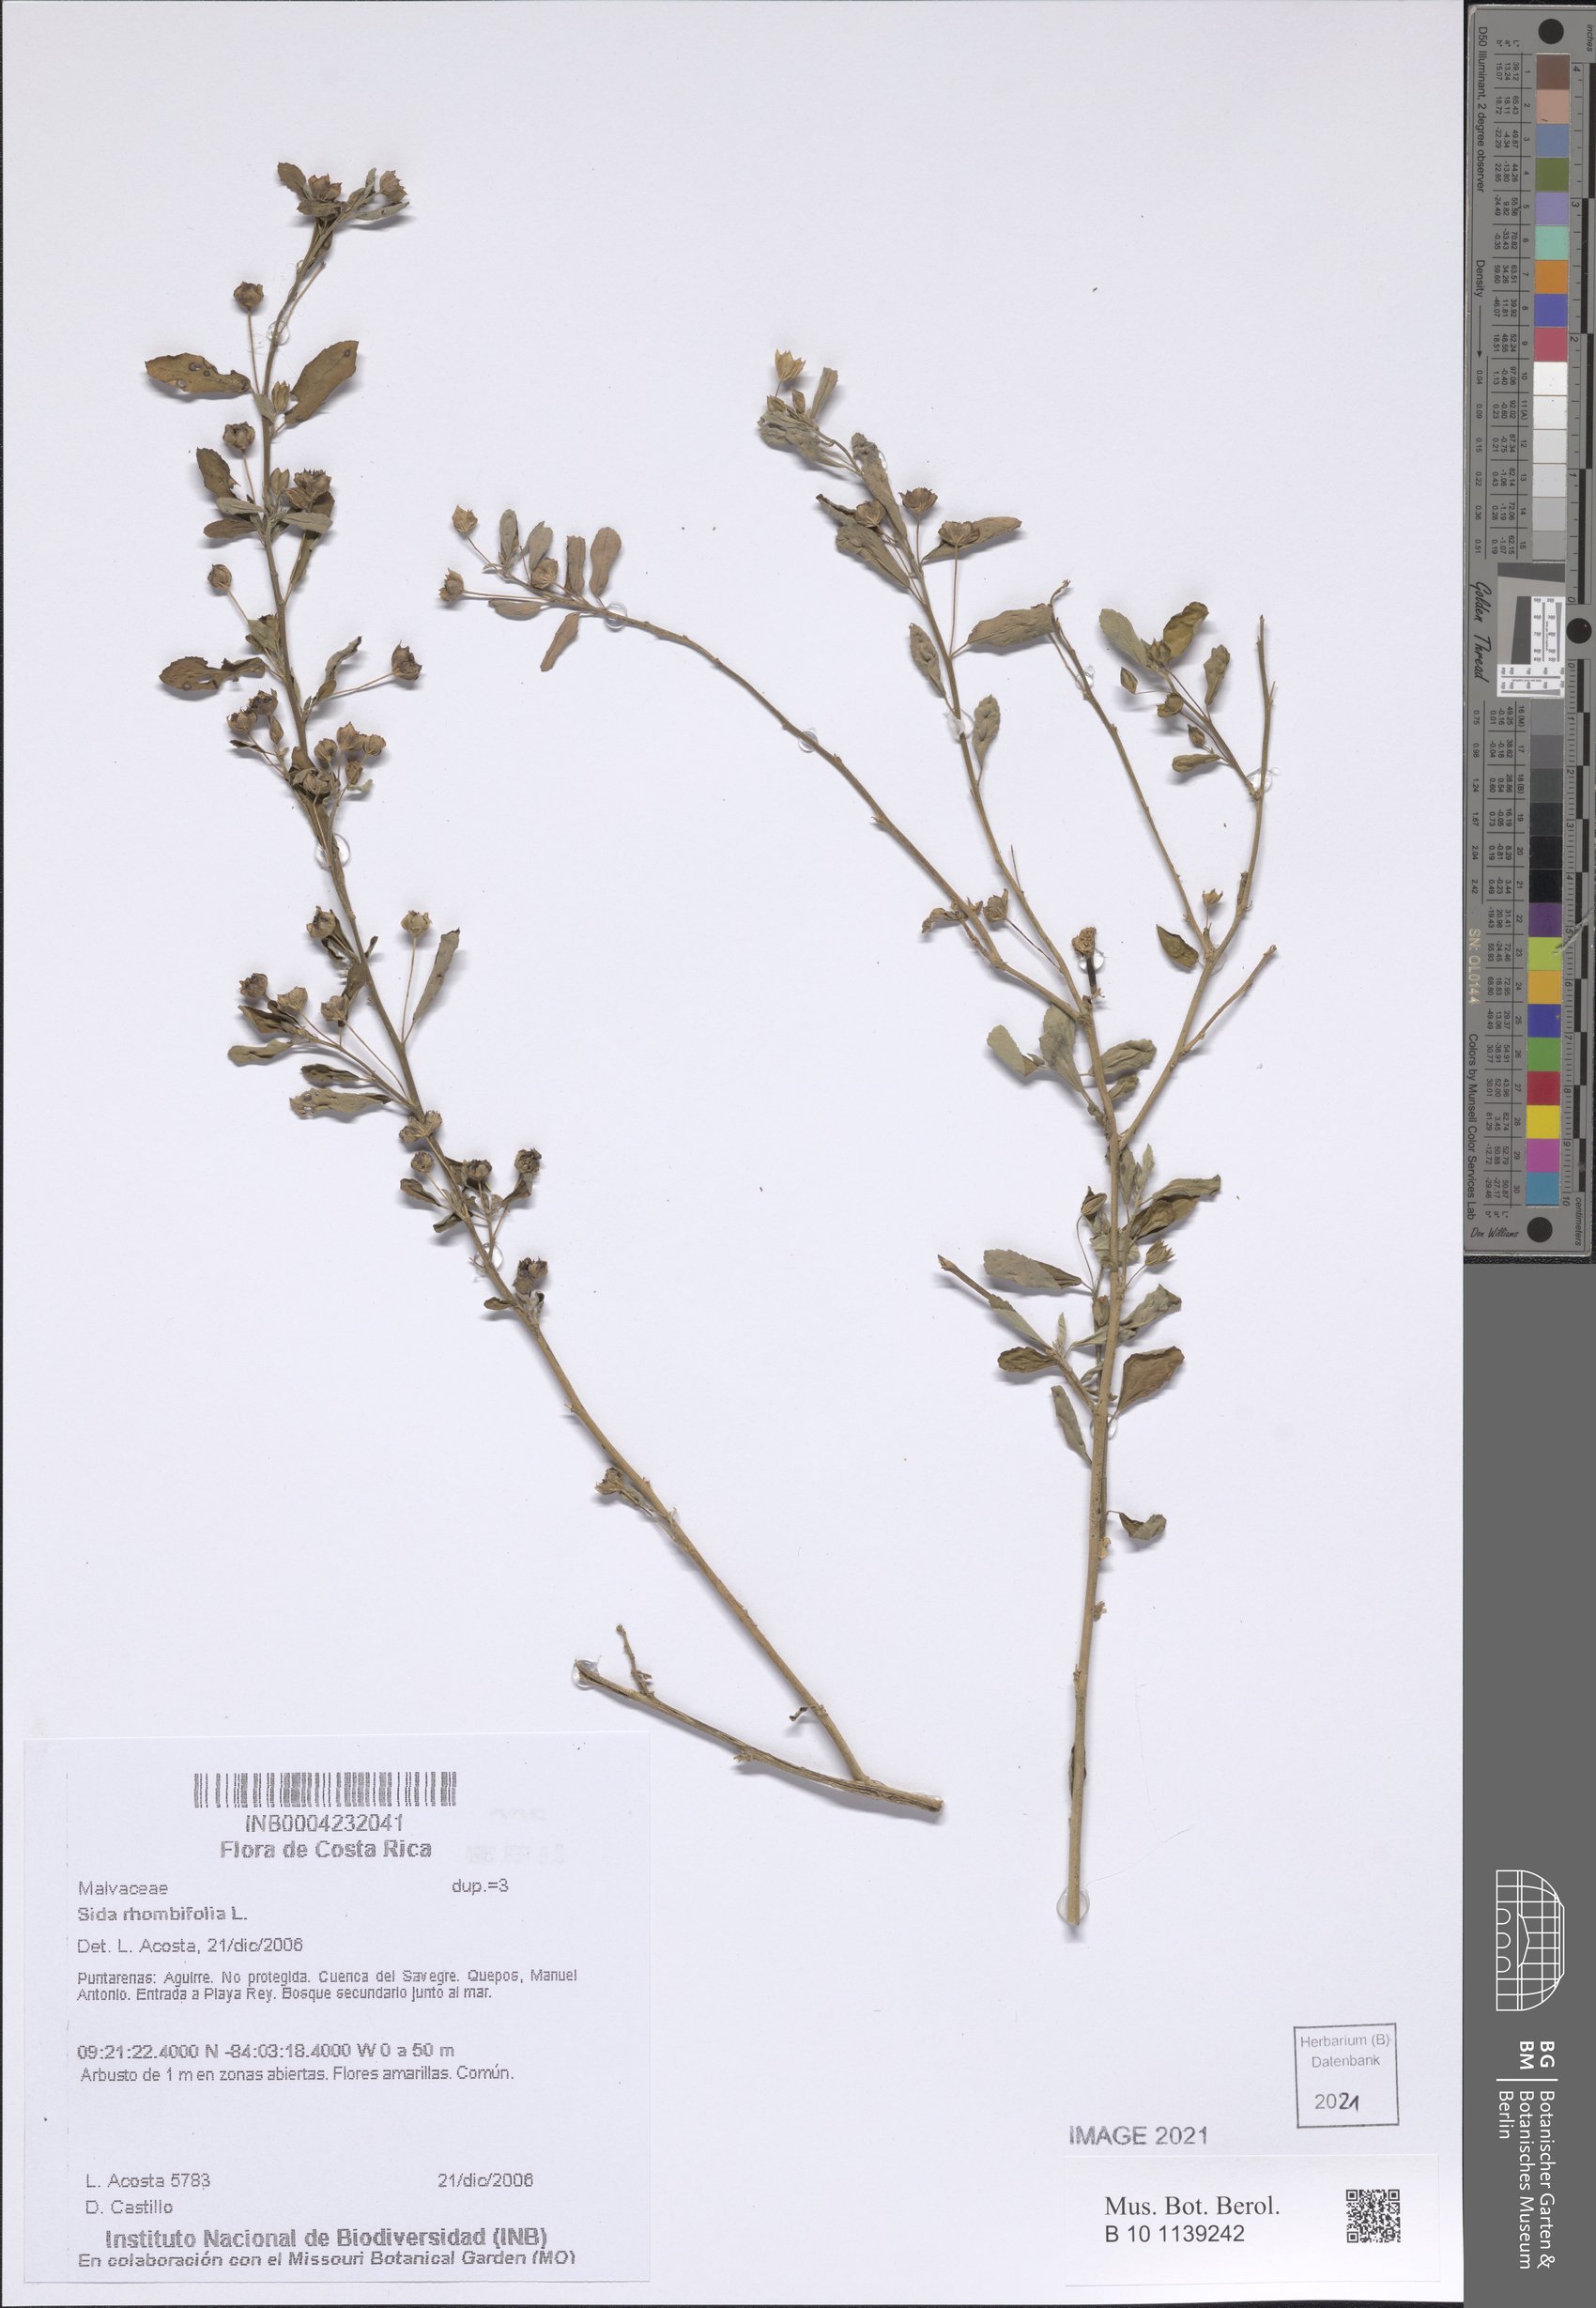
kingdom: Plantae
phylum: Tracheophyta
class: Magnoliopsida
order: Malvales
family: Malvaceae
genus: Sida
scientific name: Sida rhombifolia
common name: Queensland-hemp
